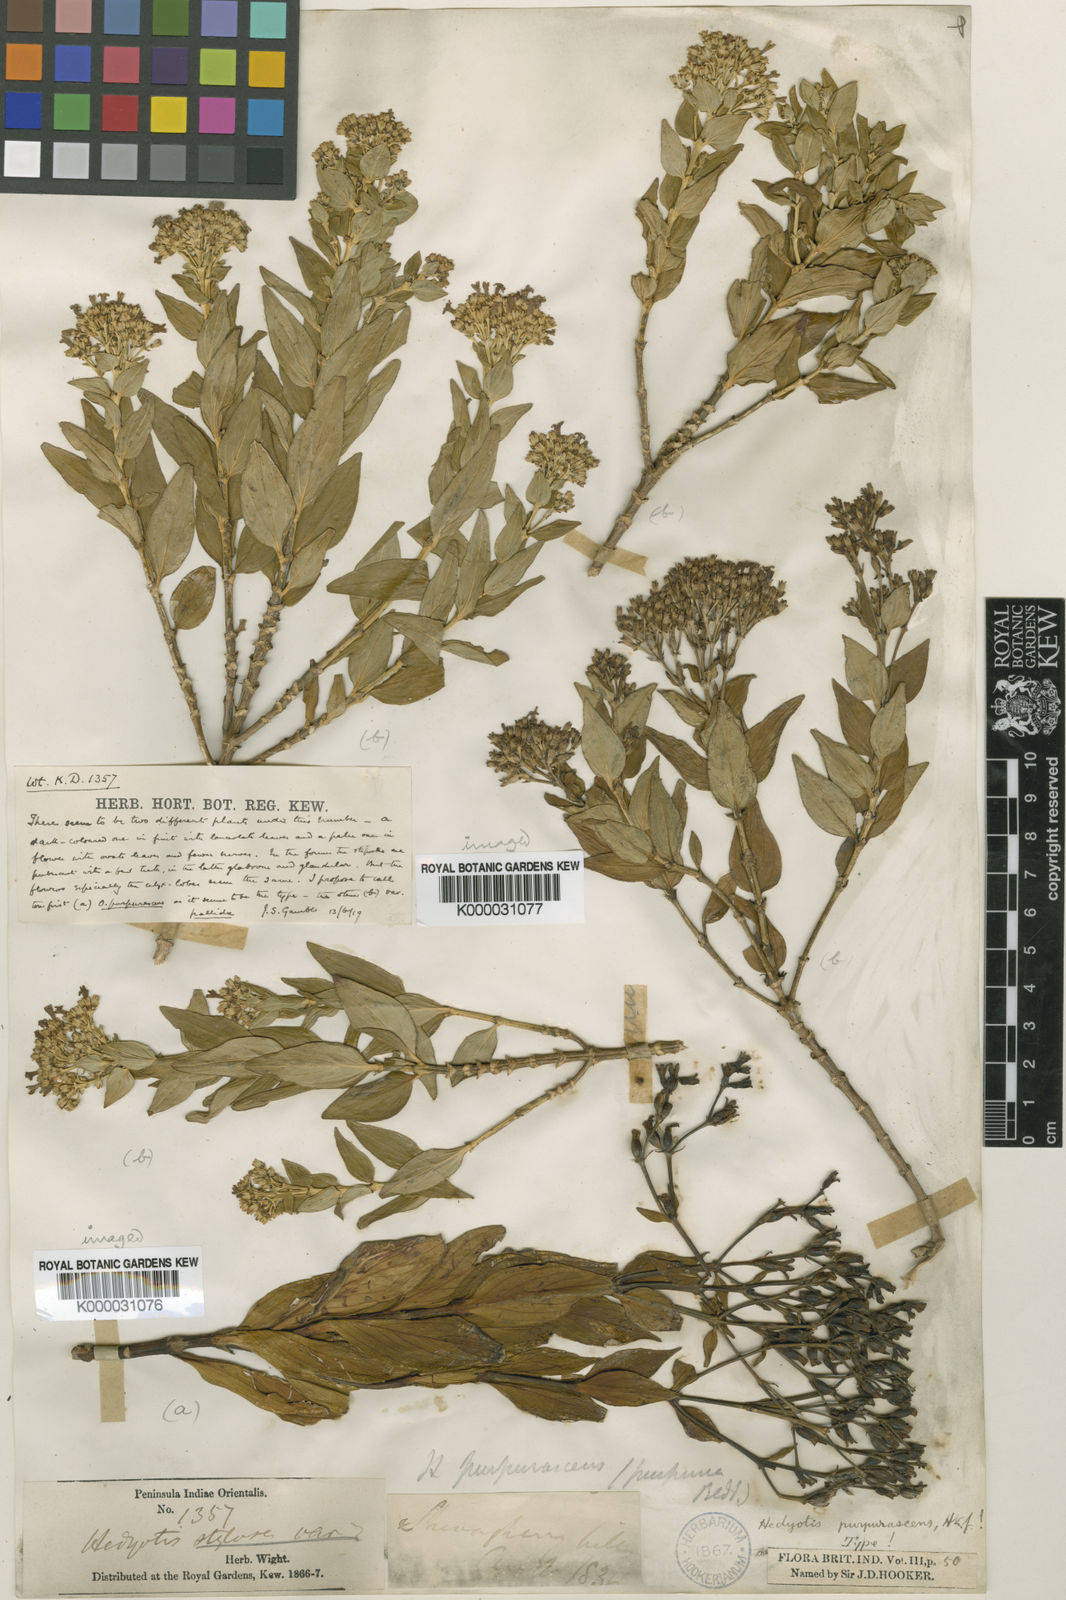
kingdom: Plantae
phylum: Tracheophyta
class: Magnoliopsida
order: Gentianales
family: Rubiaceae
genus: Hedyotis
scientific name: Hedyotis purpurascens
